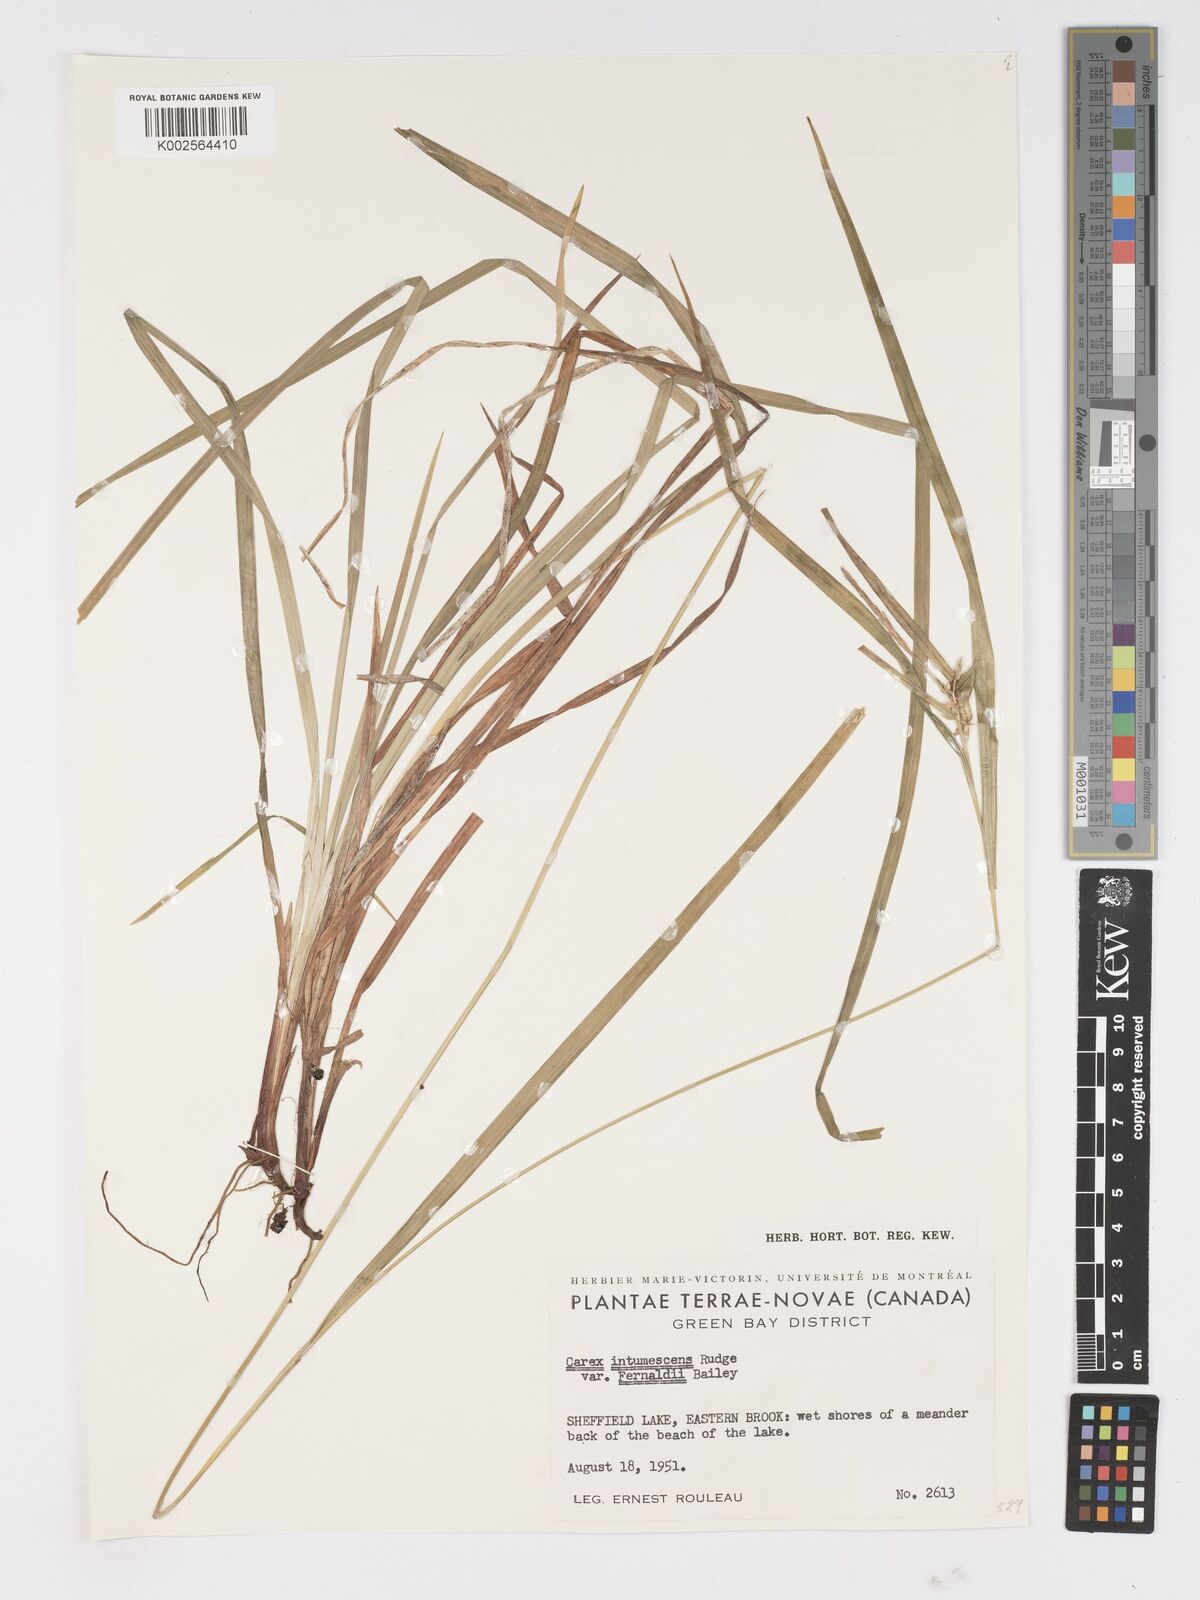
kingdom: Plantae
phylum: Tracheophyta
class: Liliopsida
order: Poales
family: Cyperaceae
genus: Carex
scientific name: Carex intumescens
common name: Greater bladder sedge
